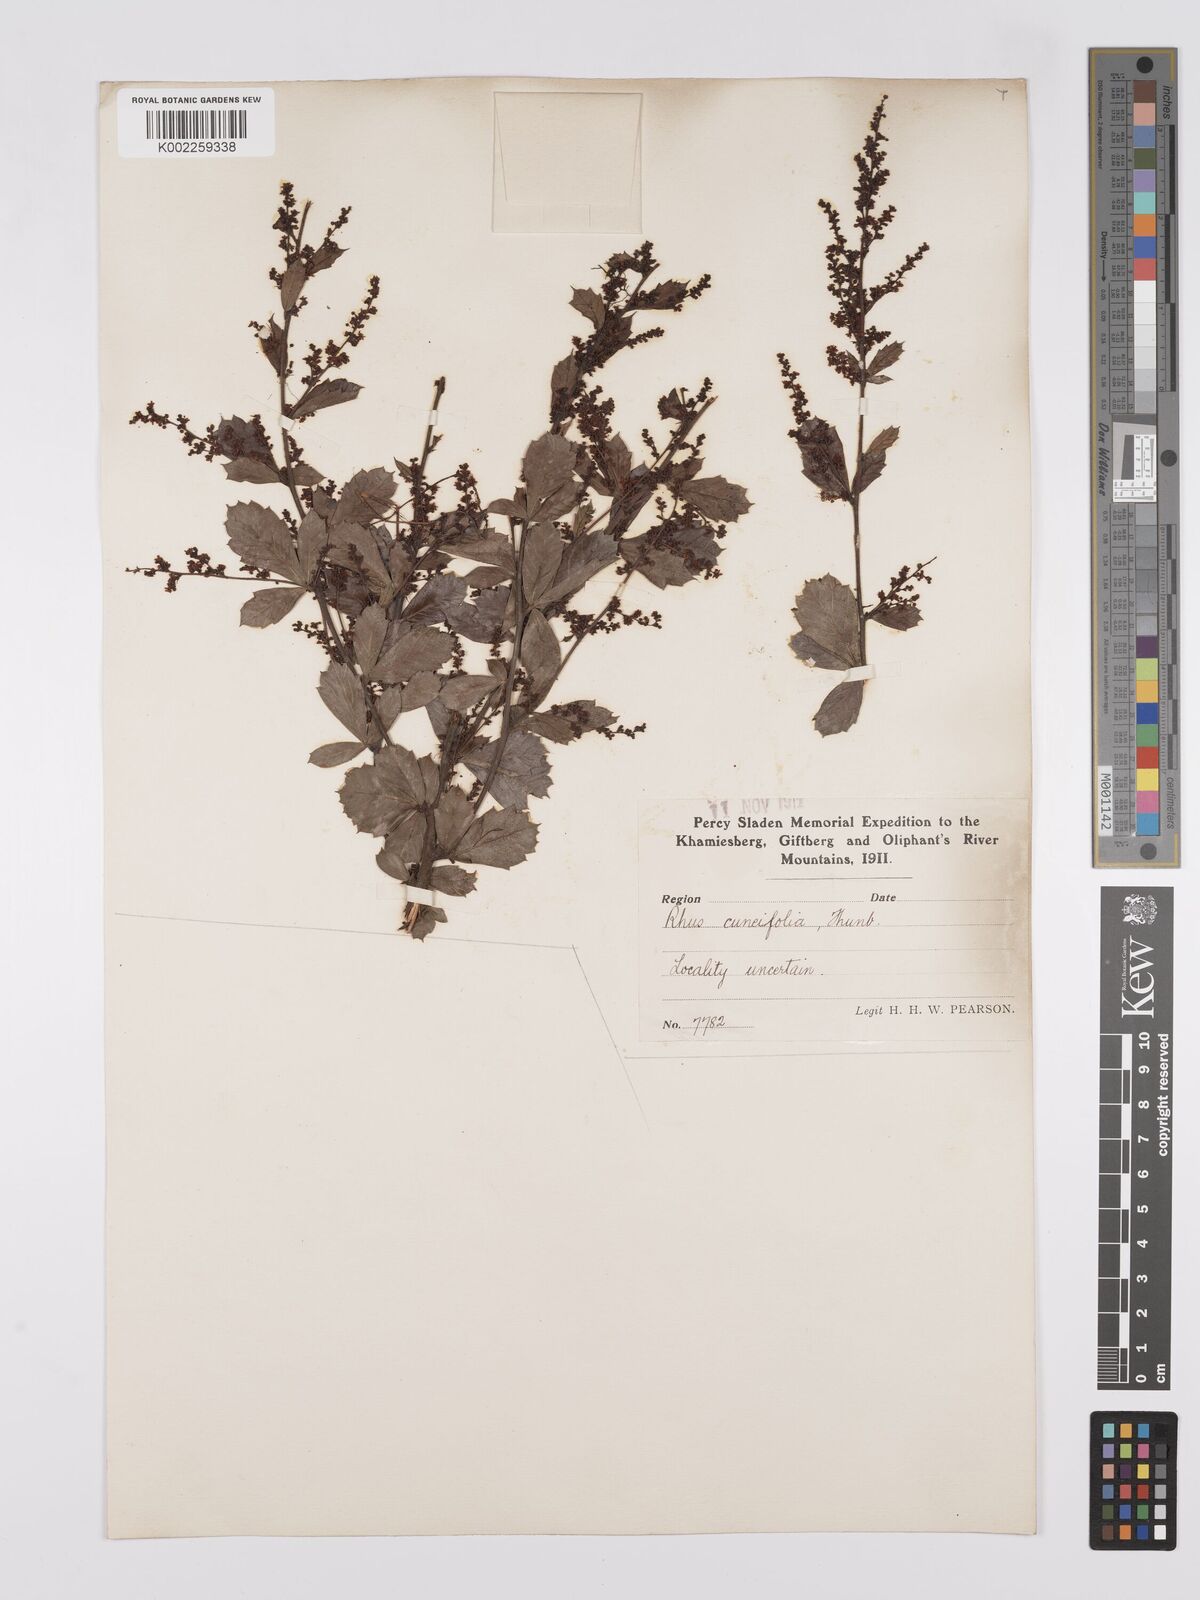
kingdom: Plantae
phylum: Tracheophyta
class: Magnoliopsida
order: Sapindales
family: Anacardiaceae
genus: Searsia
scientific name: Searsia cuneifolia
